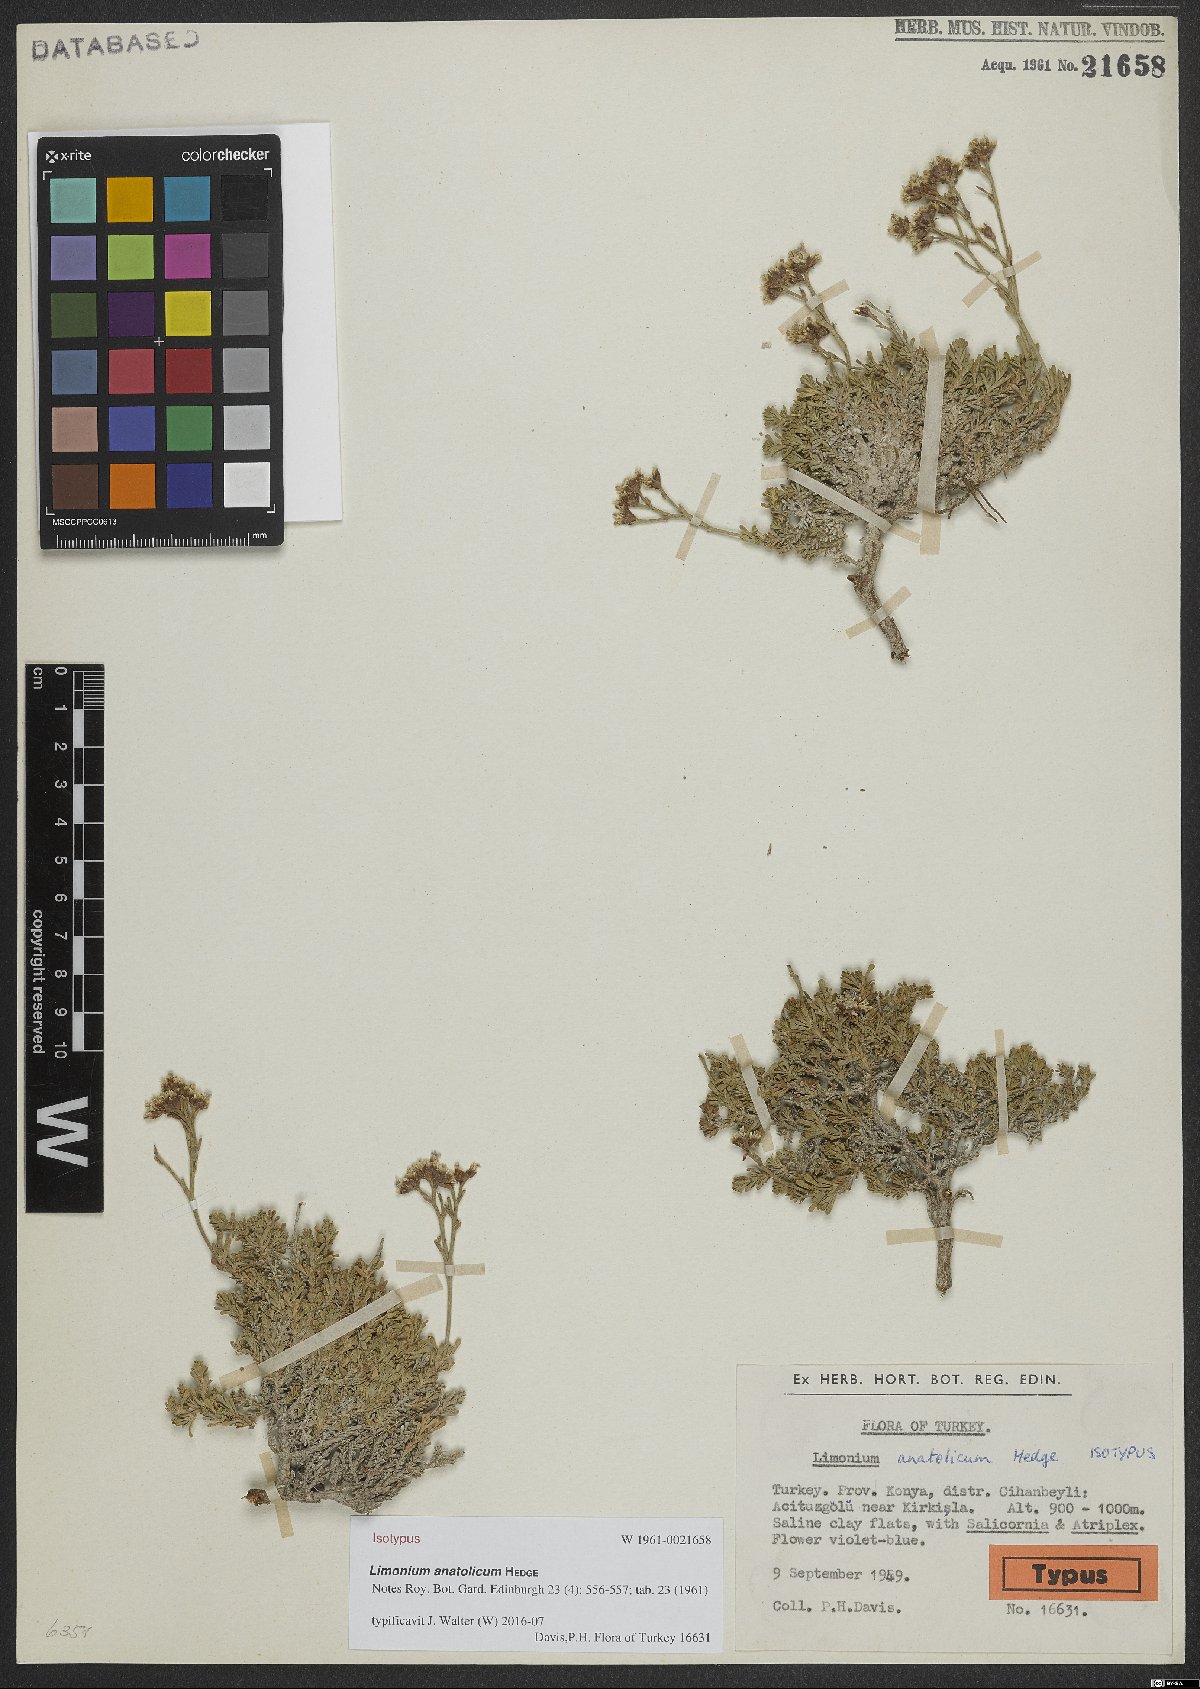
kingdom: Plantae
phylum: Tracheophyta
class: Magnoliopsida
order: Caryophyllales
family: Plumbaginaceae
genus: Limonium
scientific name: Limonium anatolicum
